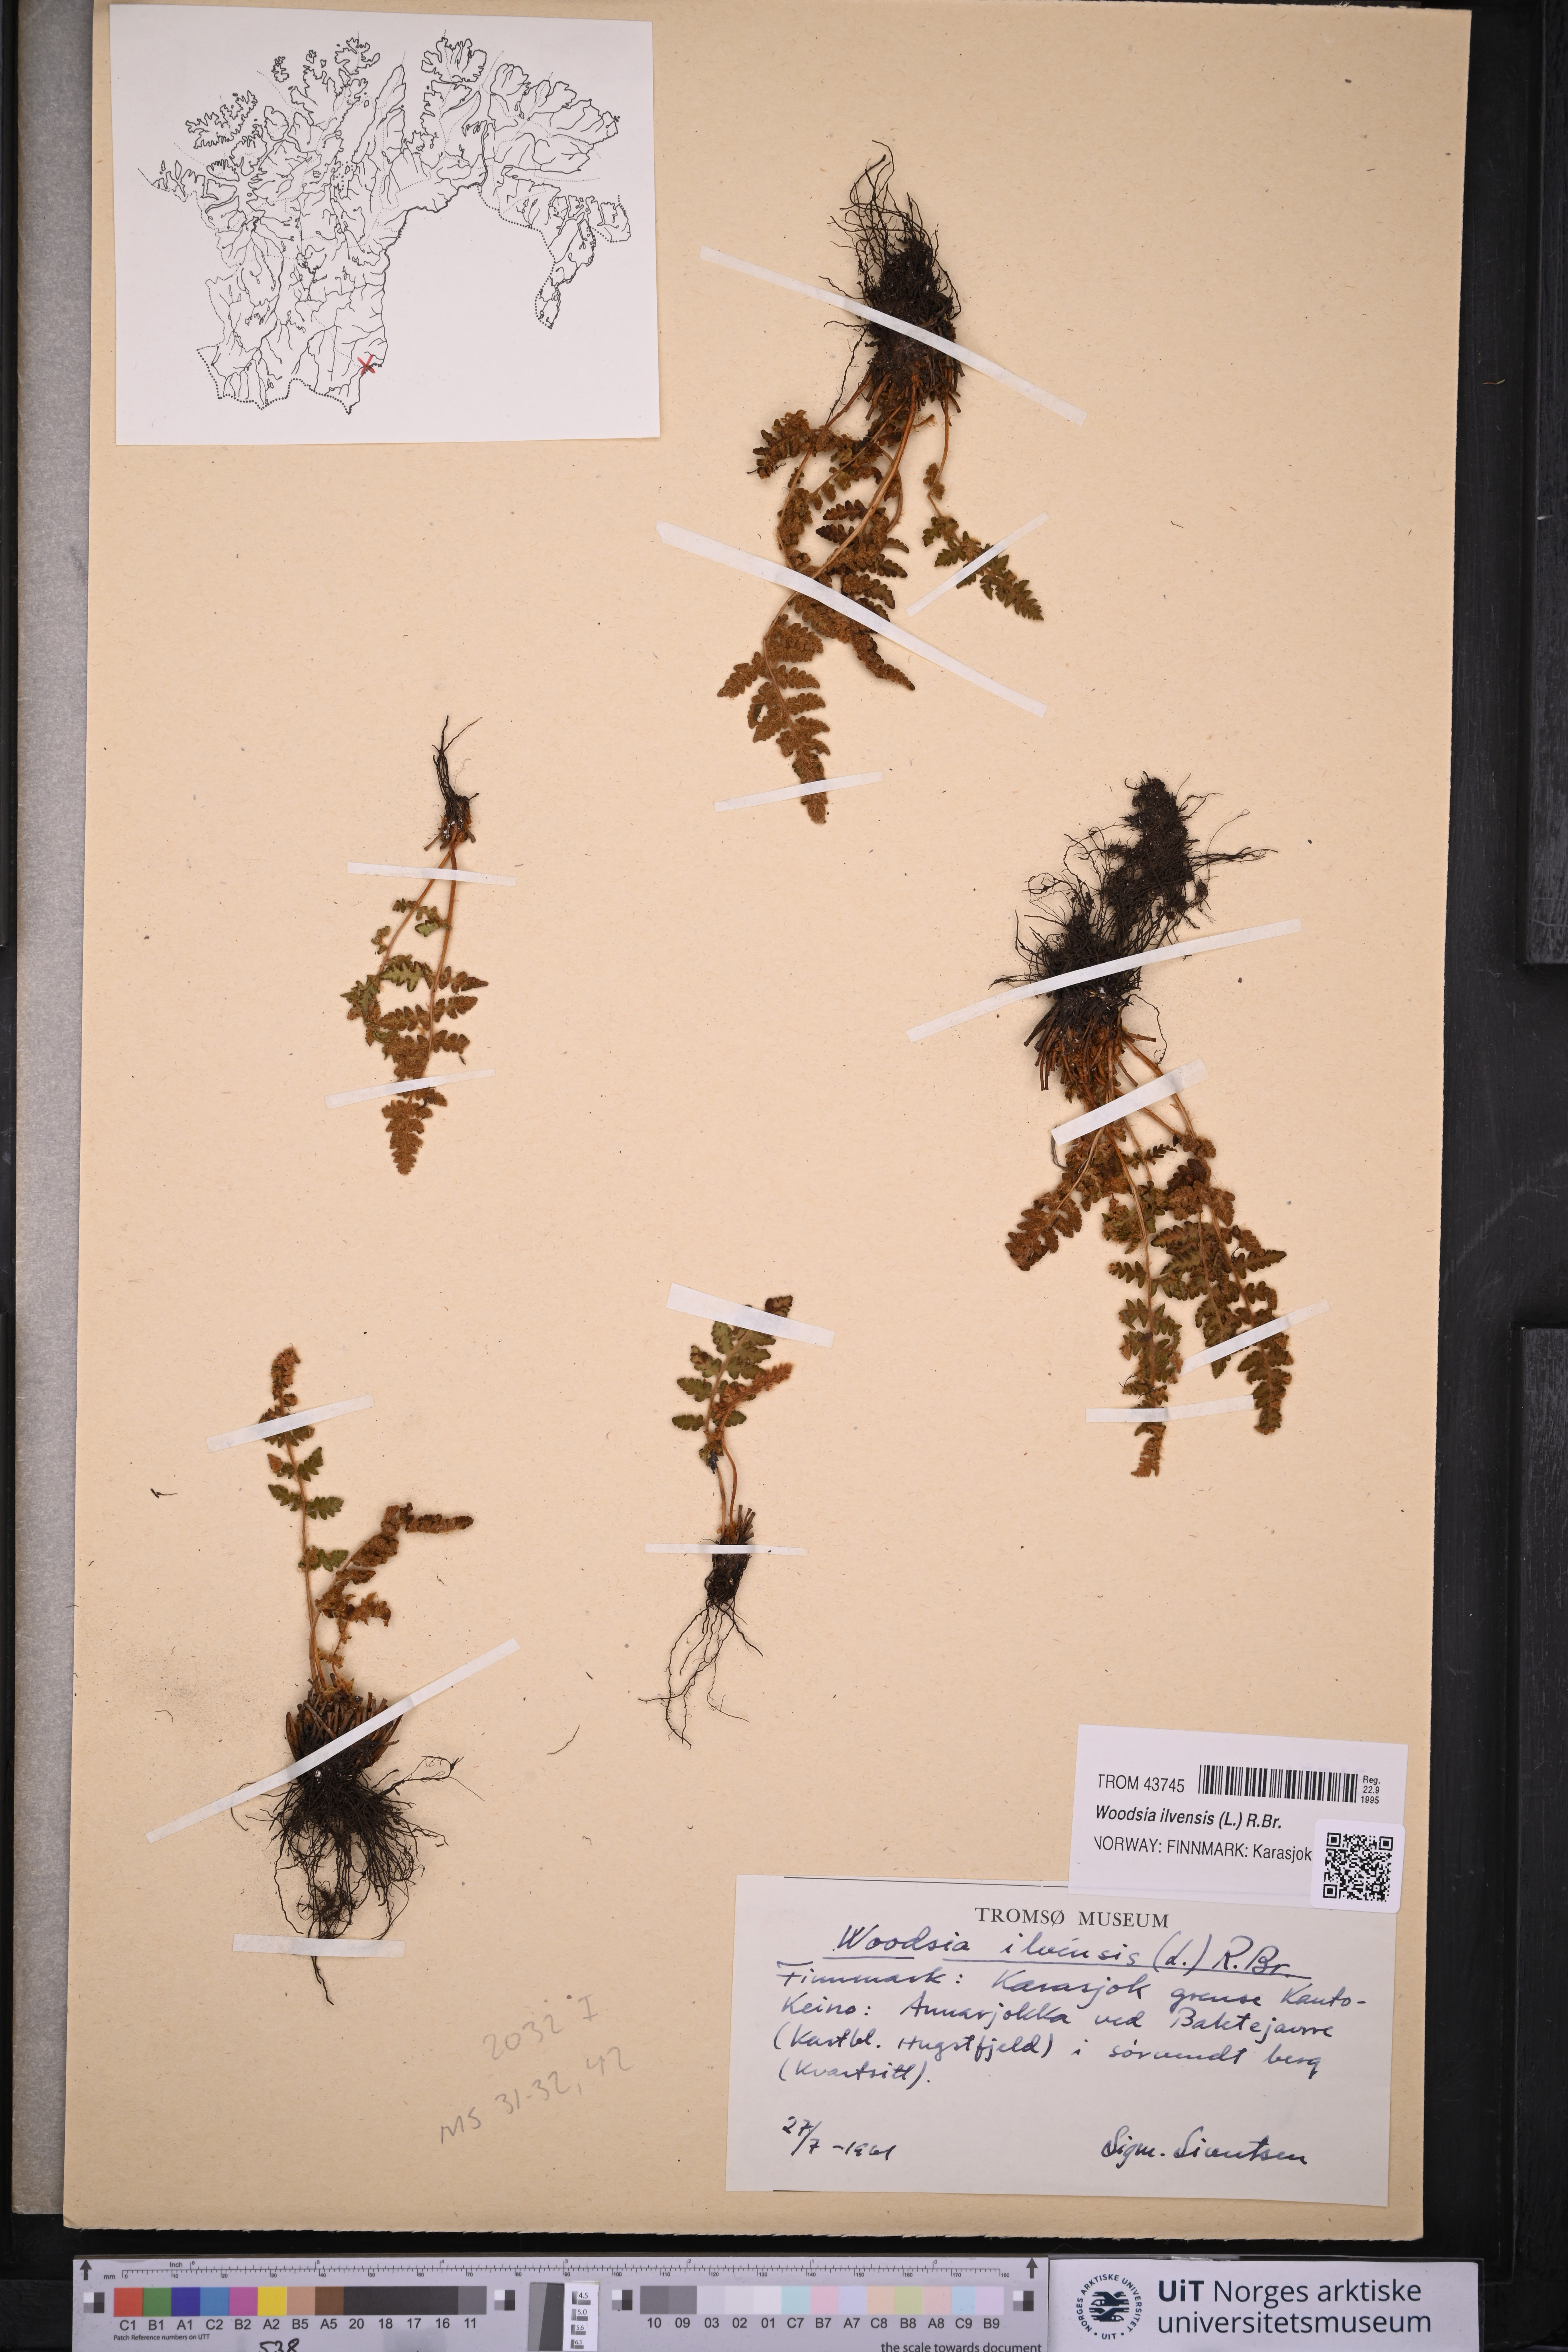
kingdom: Plantae
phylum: Tracheophyta
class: Polypodiopsida
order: Polypodiales
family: Woodsiaceae
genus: Woodsia
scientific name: Woodsia ilvensis
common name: Fragrant woodsia
